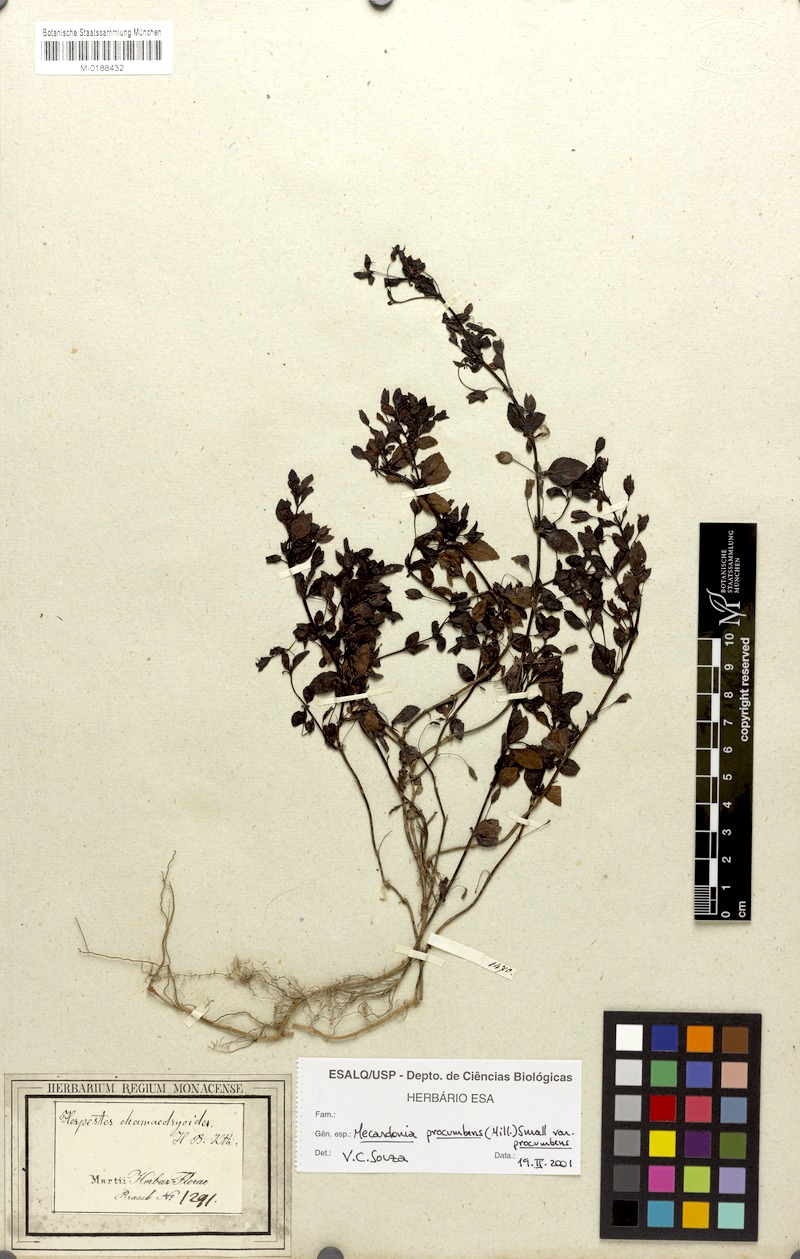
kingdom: Plantae
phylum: Tracheophyta
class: Magnoliopsida
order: Lamiales
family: Plantaginaceae
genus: Mecardonia
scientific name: Mecardonia procumbens
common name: Baby jump-up
